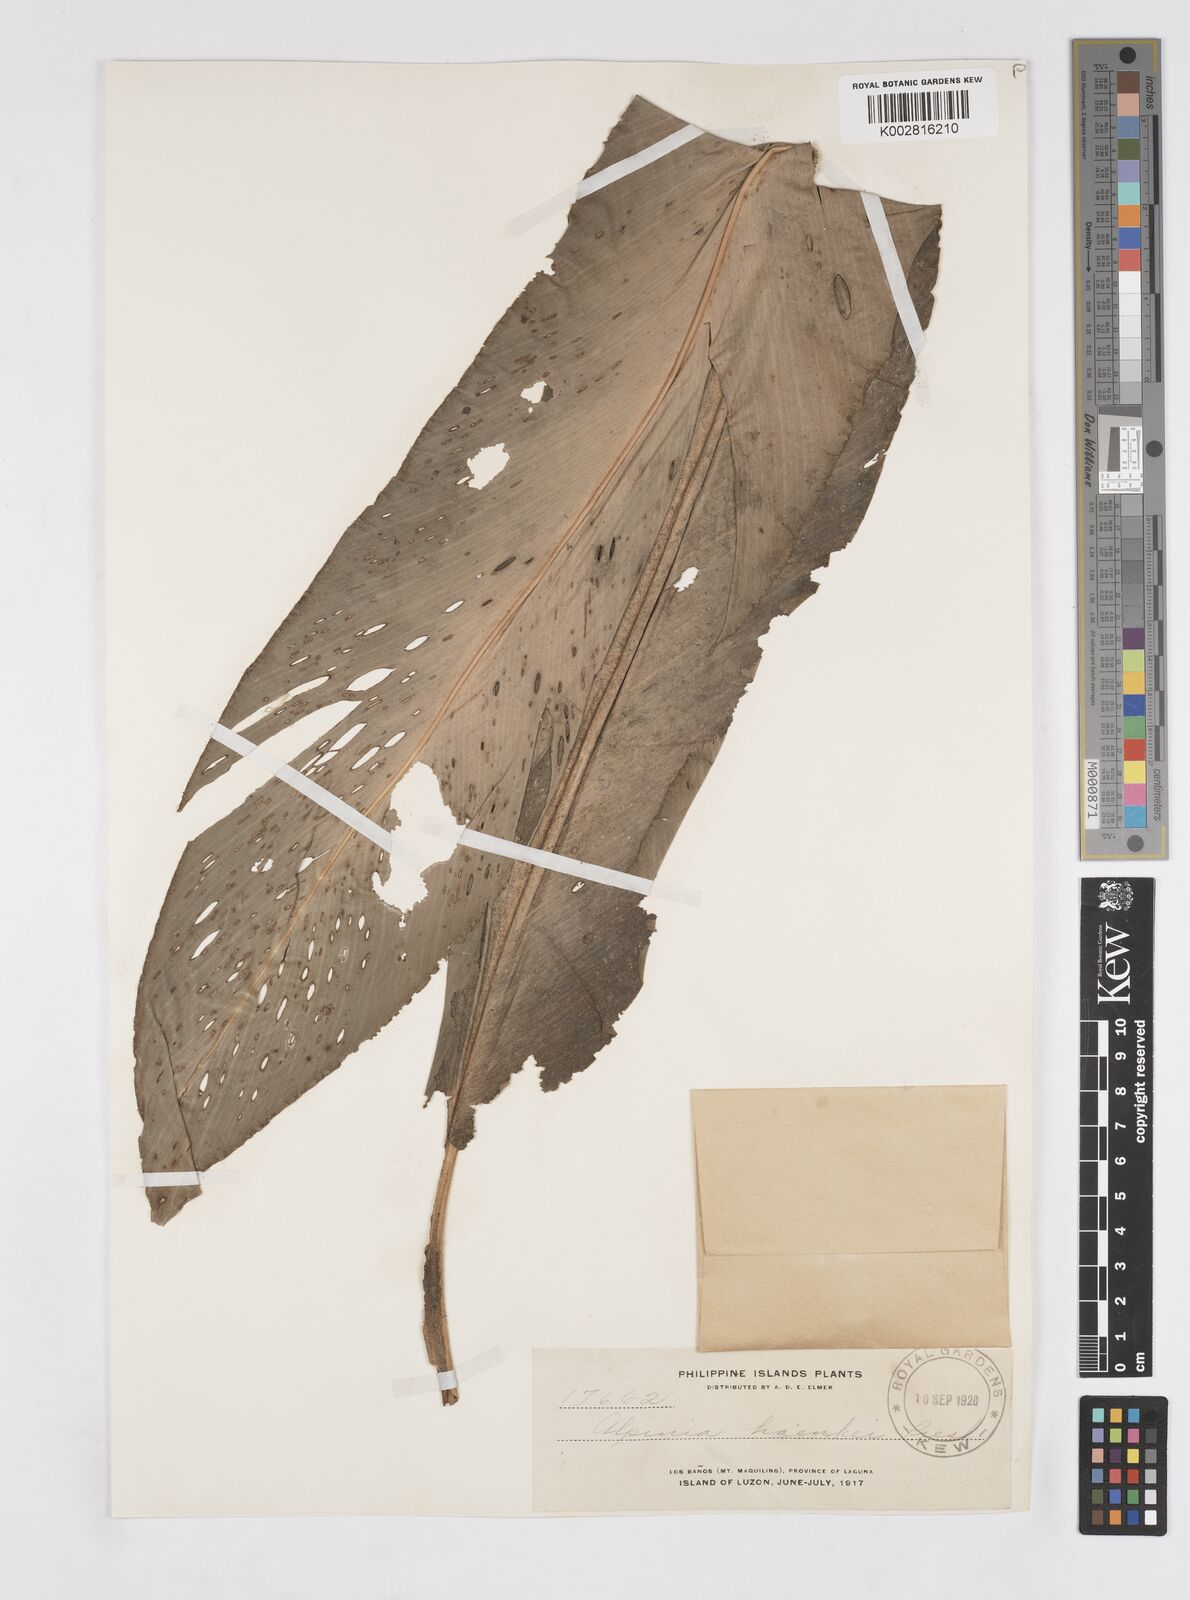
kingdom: Plantae
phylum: Tracheophyta
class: Liliopsida
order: Zingiberales
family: Zingiberaceae
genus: Alpinia
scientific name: Alpinia haenkei
